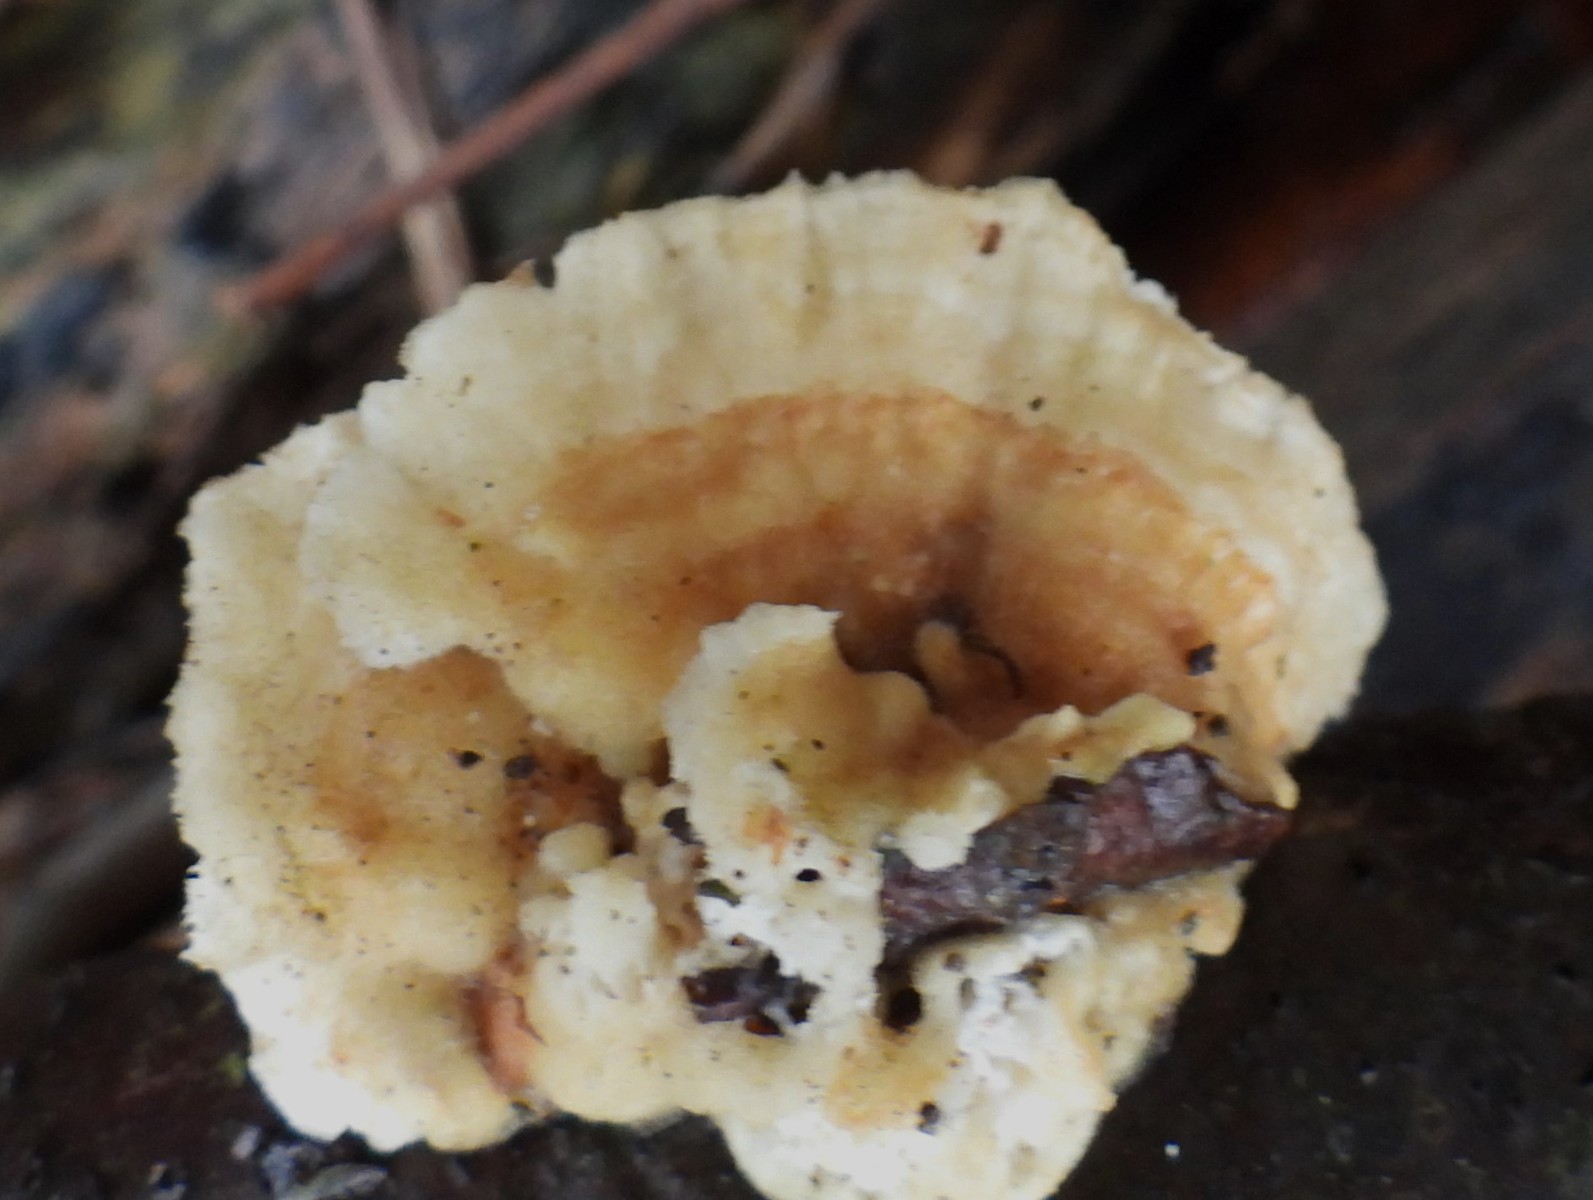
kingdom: Fungi
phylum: Basidiomycota
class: Agaricomycetes
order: Polyporales
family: Polyporaceae
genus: Trametes
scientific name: Trametes ochracea
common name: bæltet læderporesvamp
